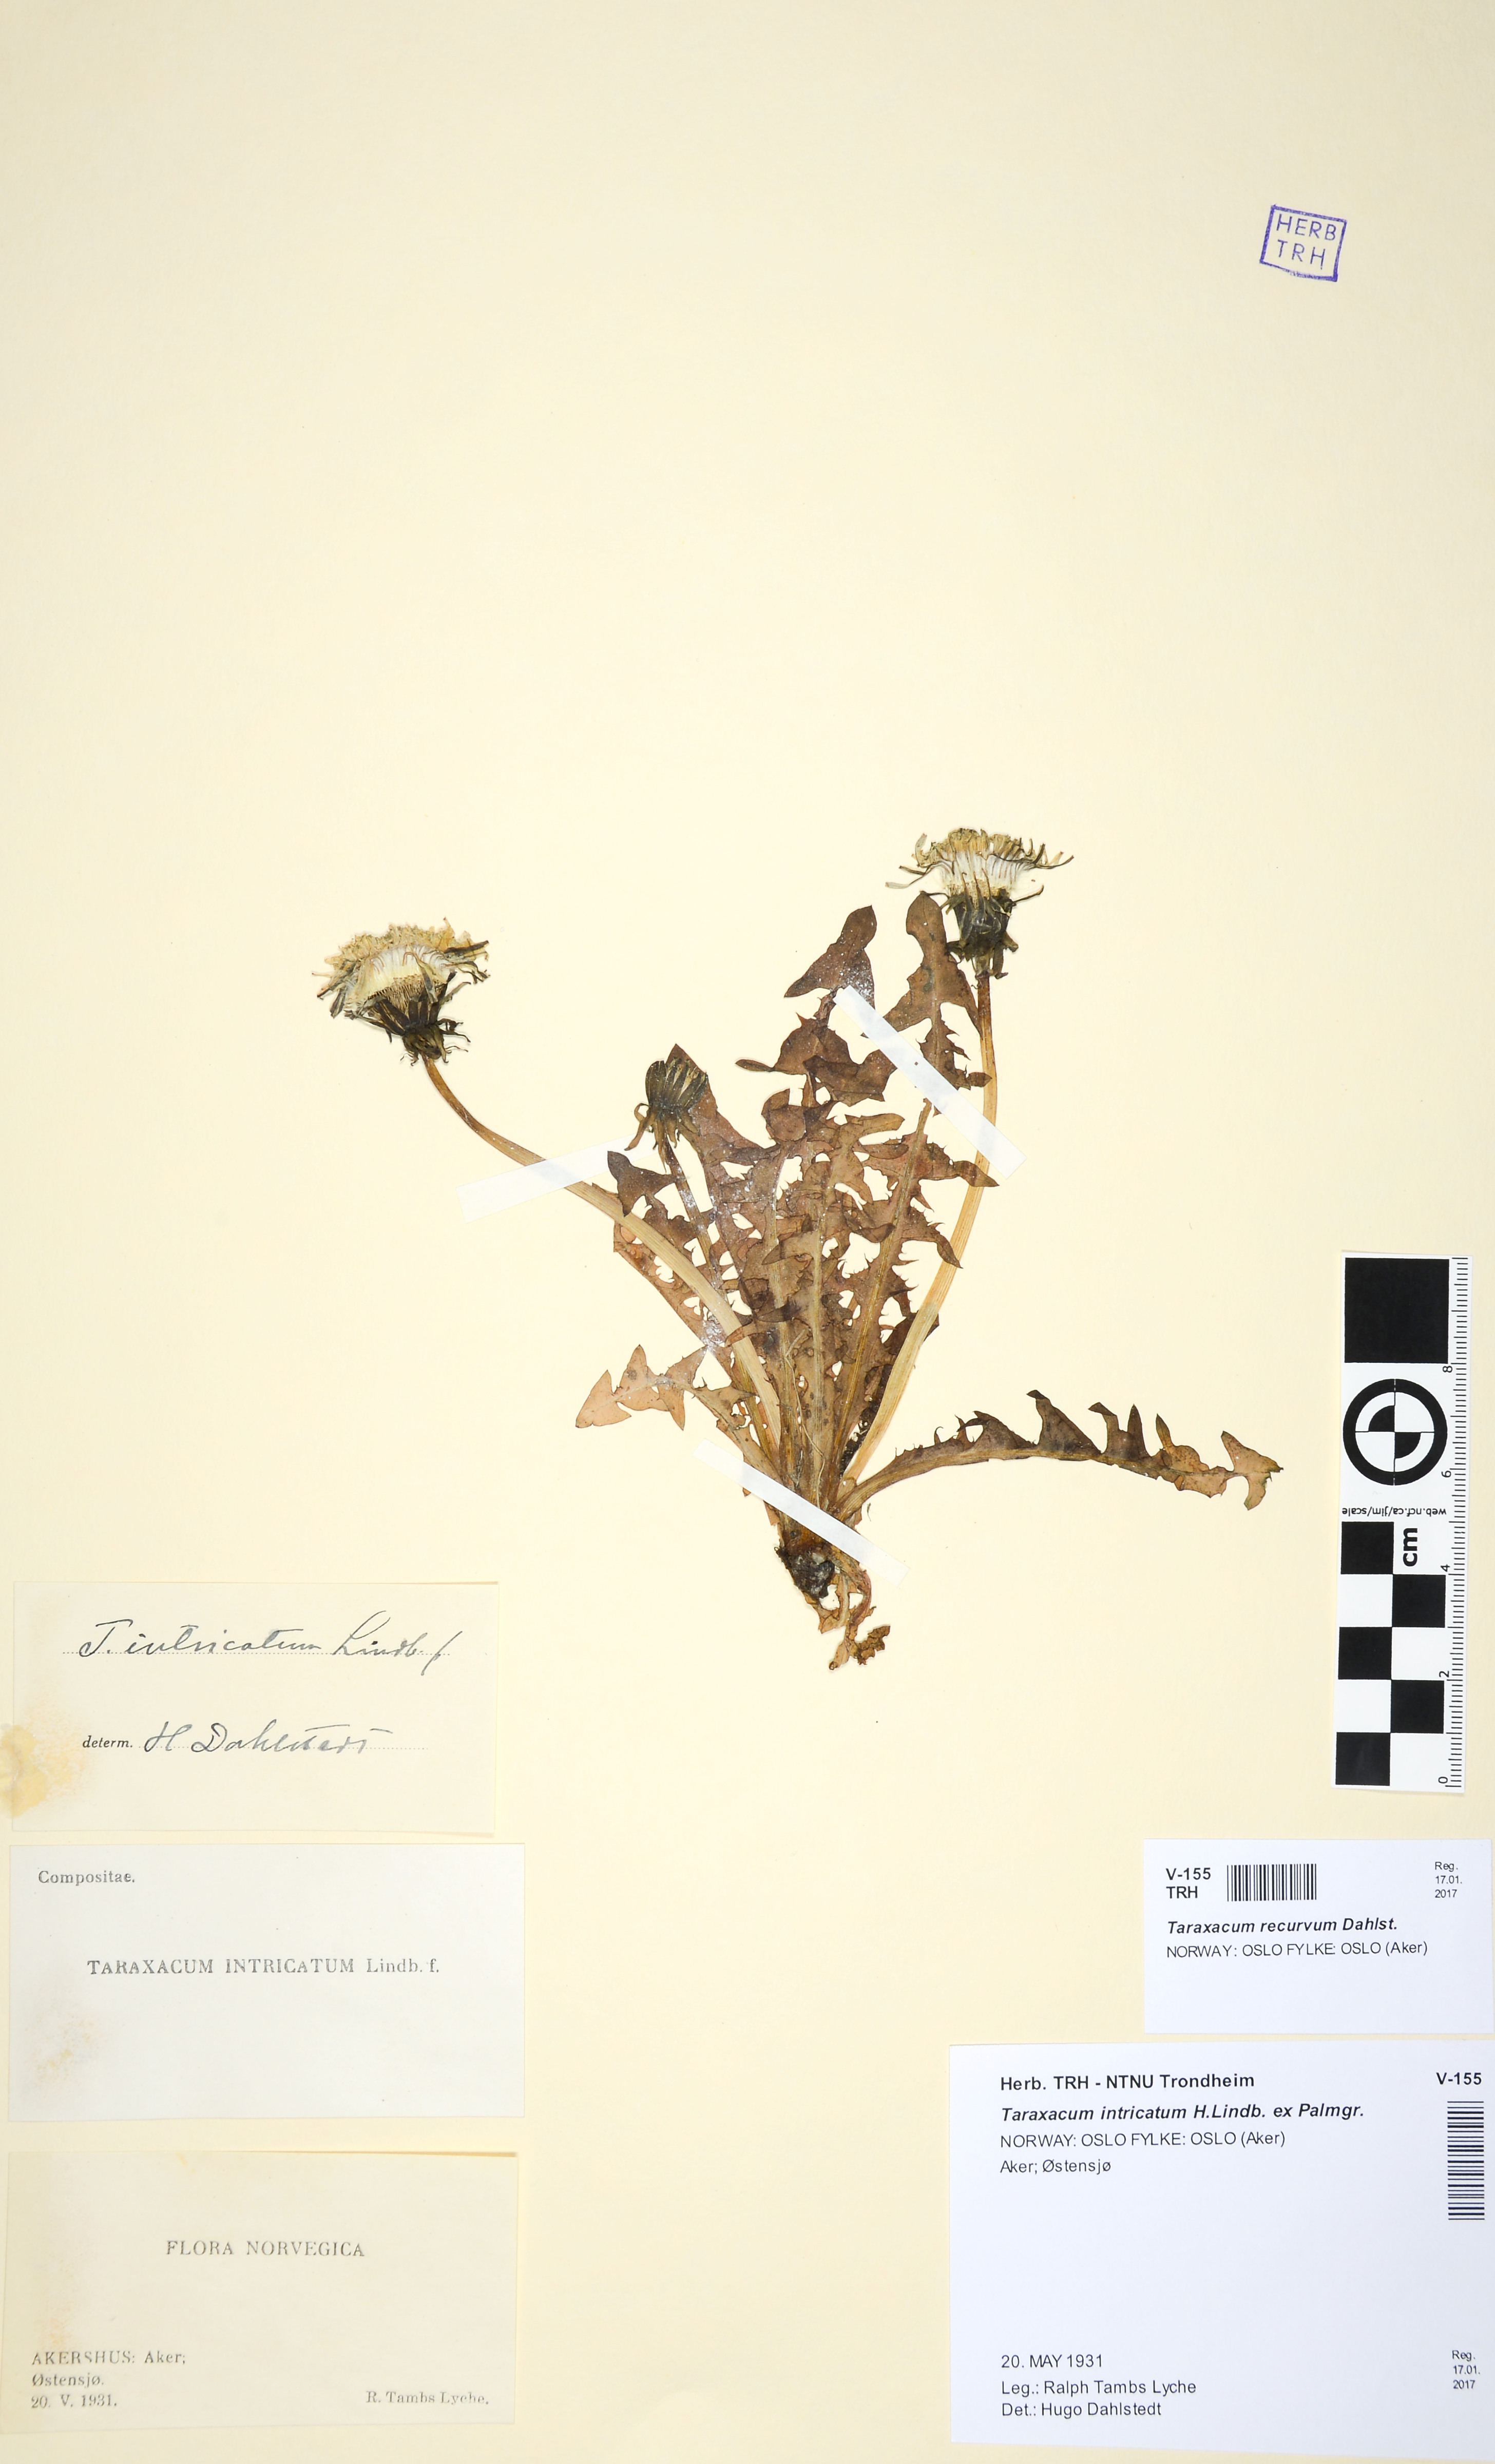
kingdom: Plantae
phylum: Tracheophyta
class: Magnoliopsida
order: Asterales
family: Asteraceae
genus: Taraxacum
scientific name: Taraxacum recurvum
